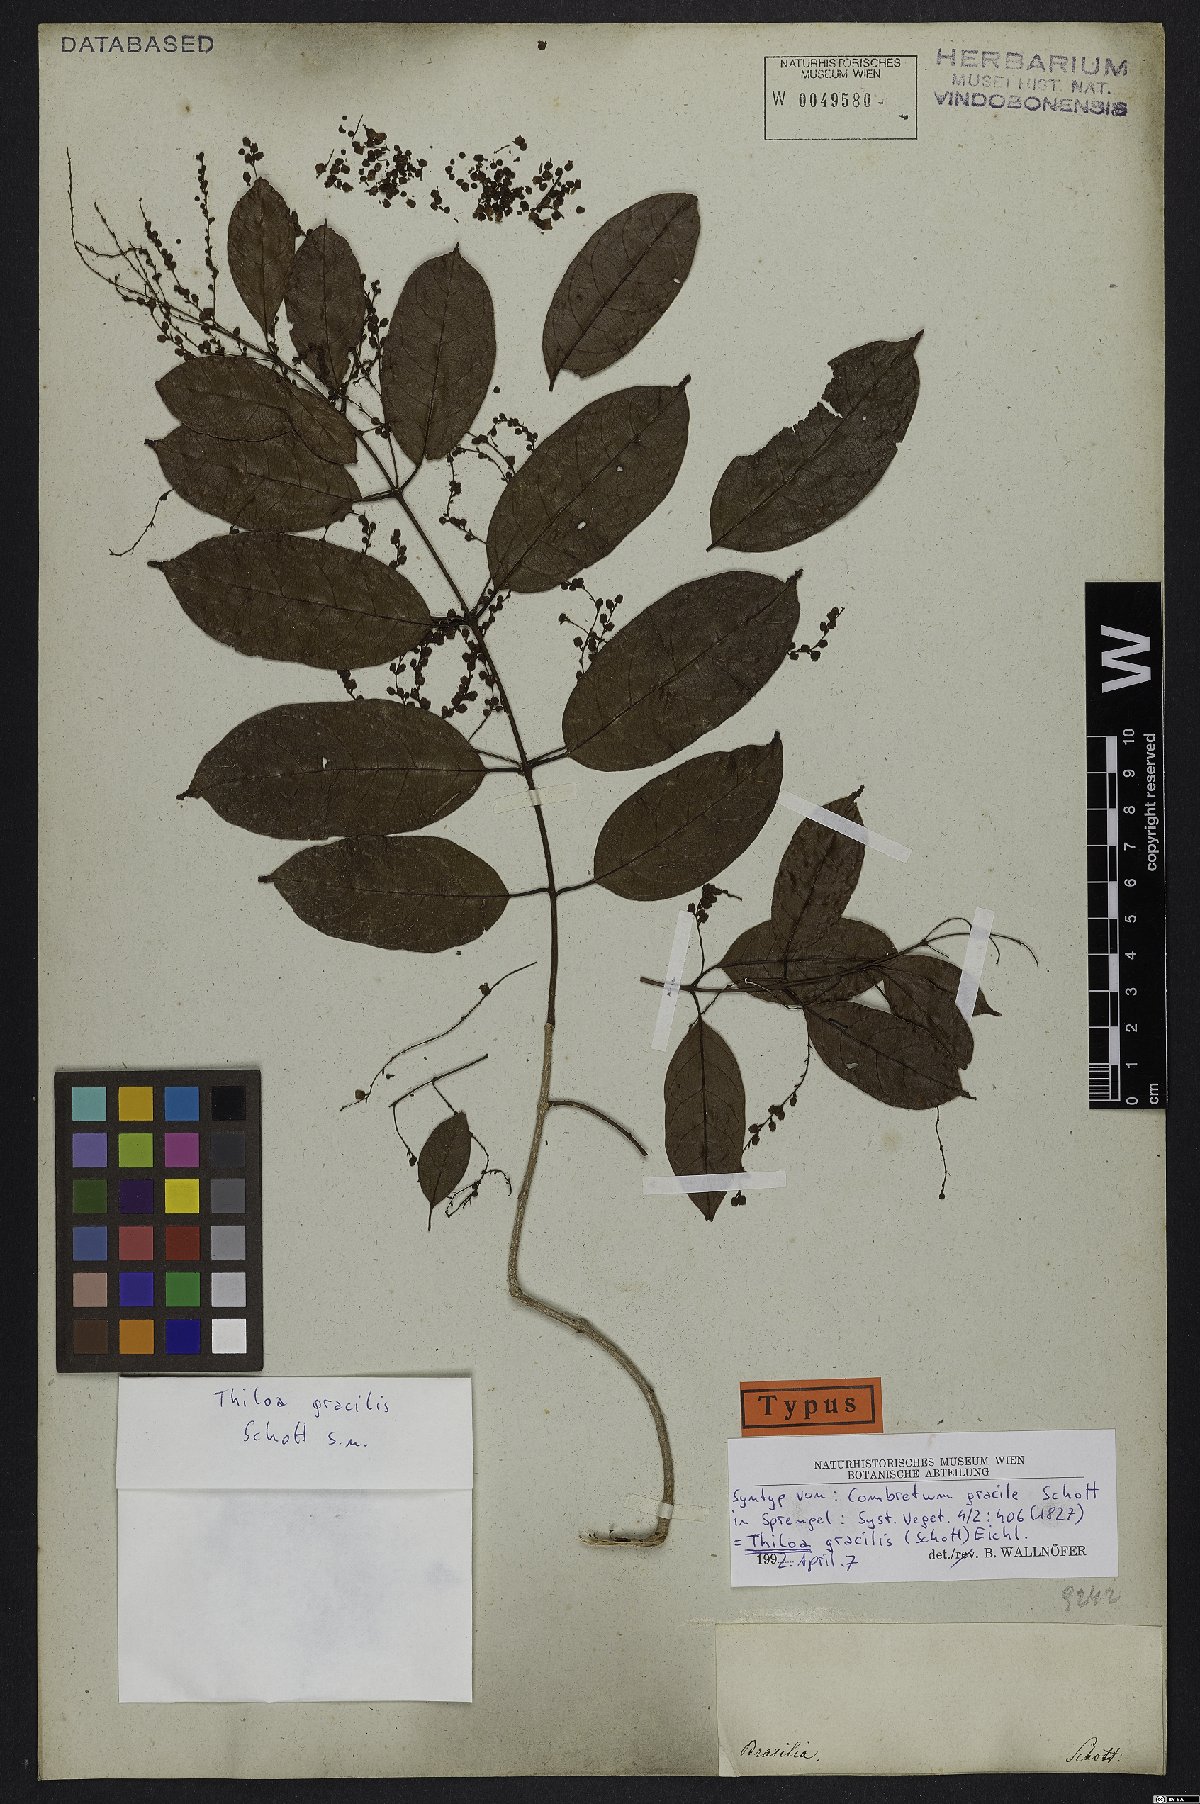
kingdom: Plantae
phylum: Tracheophyta
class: Magnoliopsida
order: Myrtales
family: Combretaceae
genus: Combretum
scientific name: Combretum gracile
